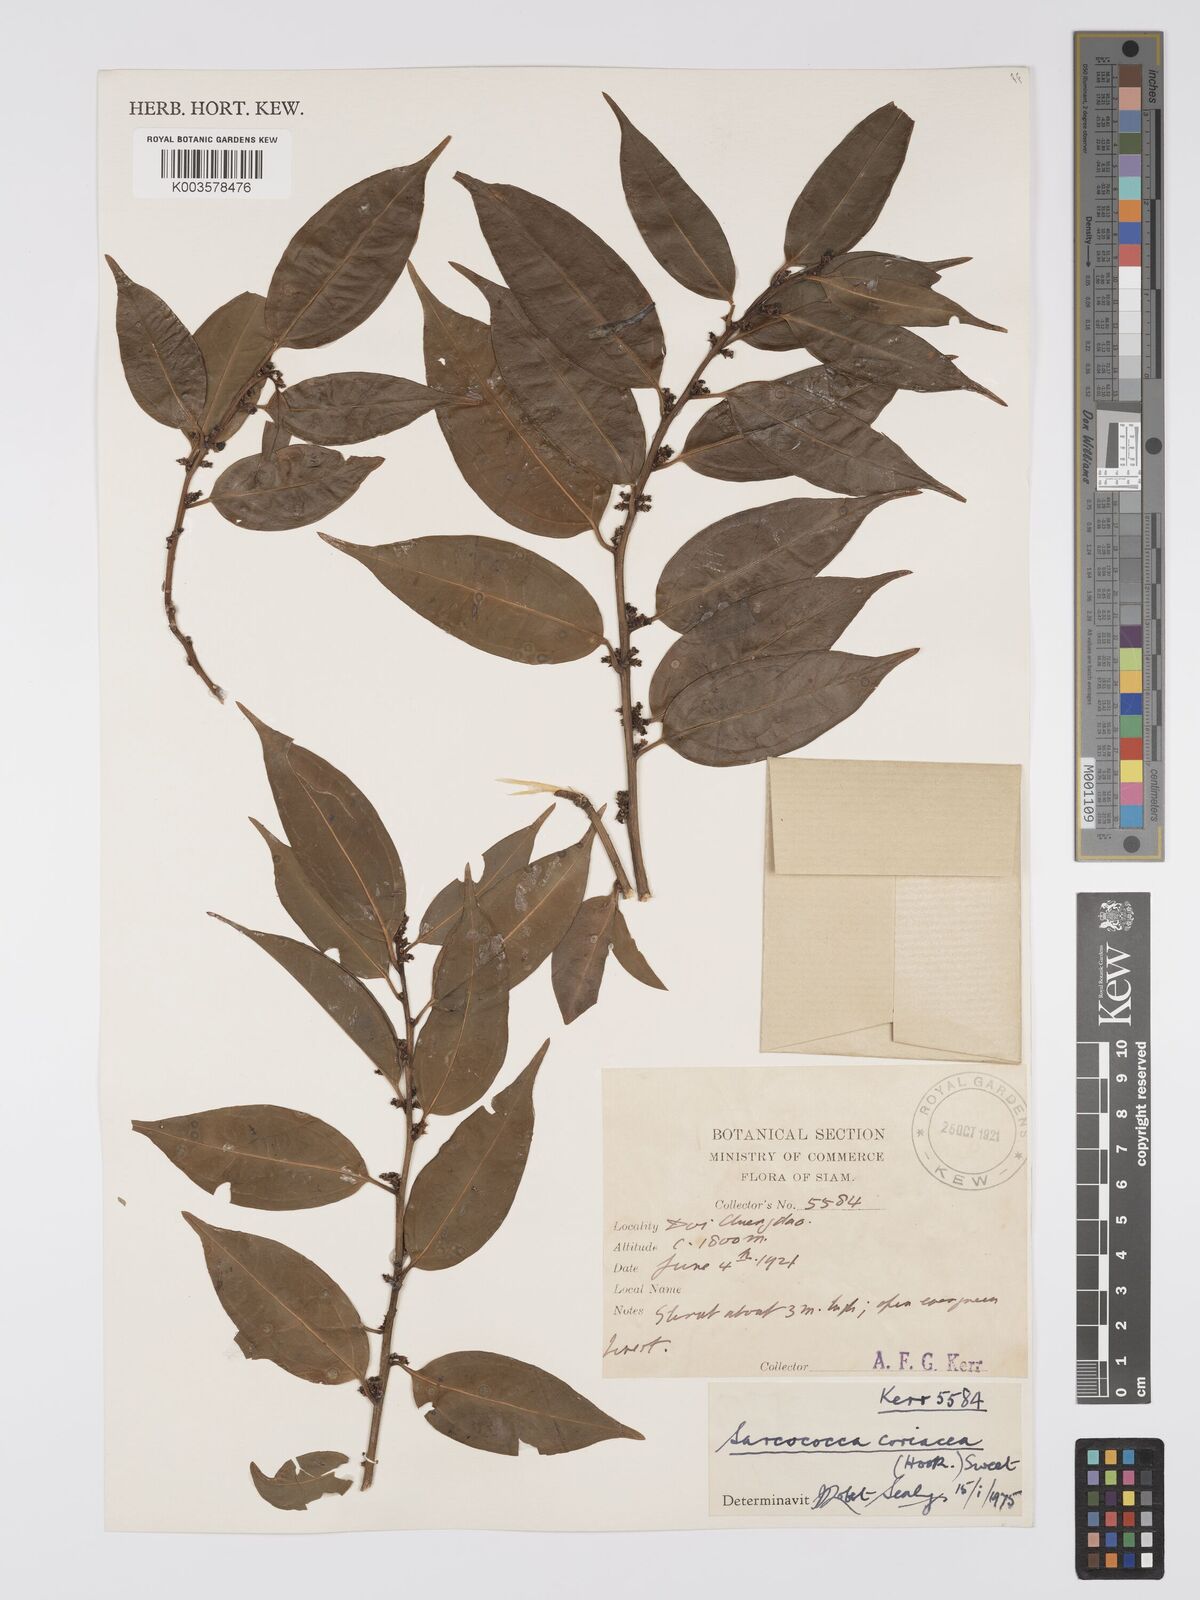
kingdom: Plantae
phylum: Tracheophyta
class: Magnoliopsida
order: Buxales
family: Buxaceae
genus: Sarcococca
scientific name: Sarcococca coriacea
